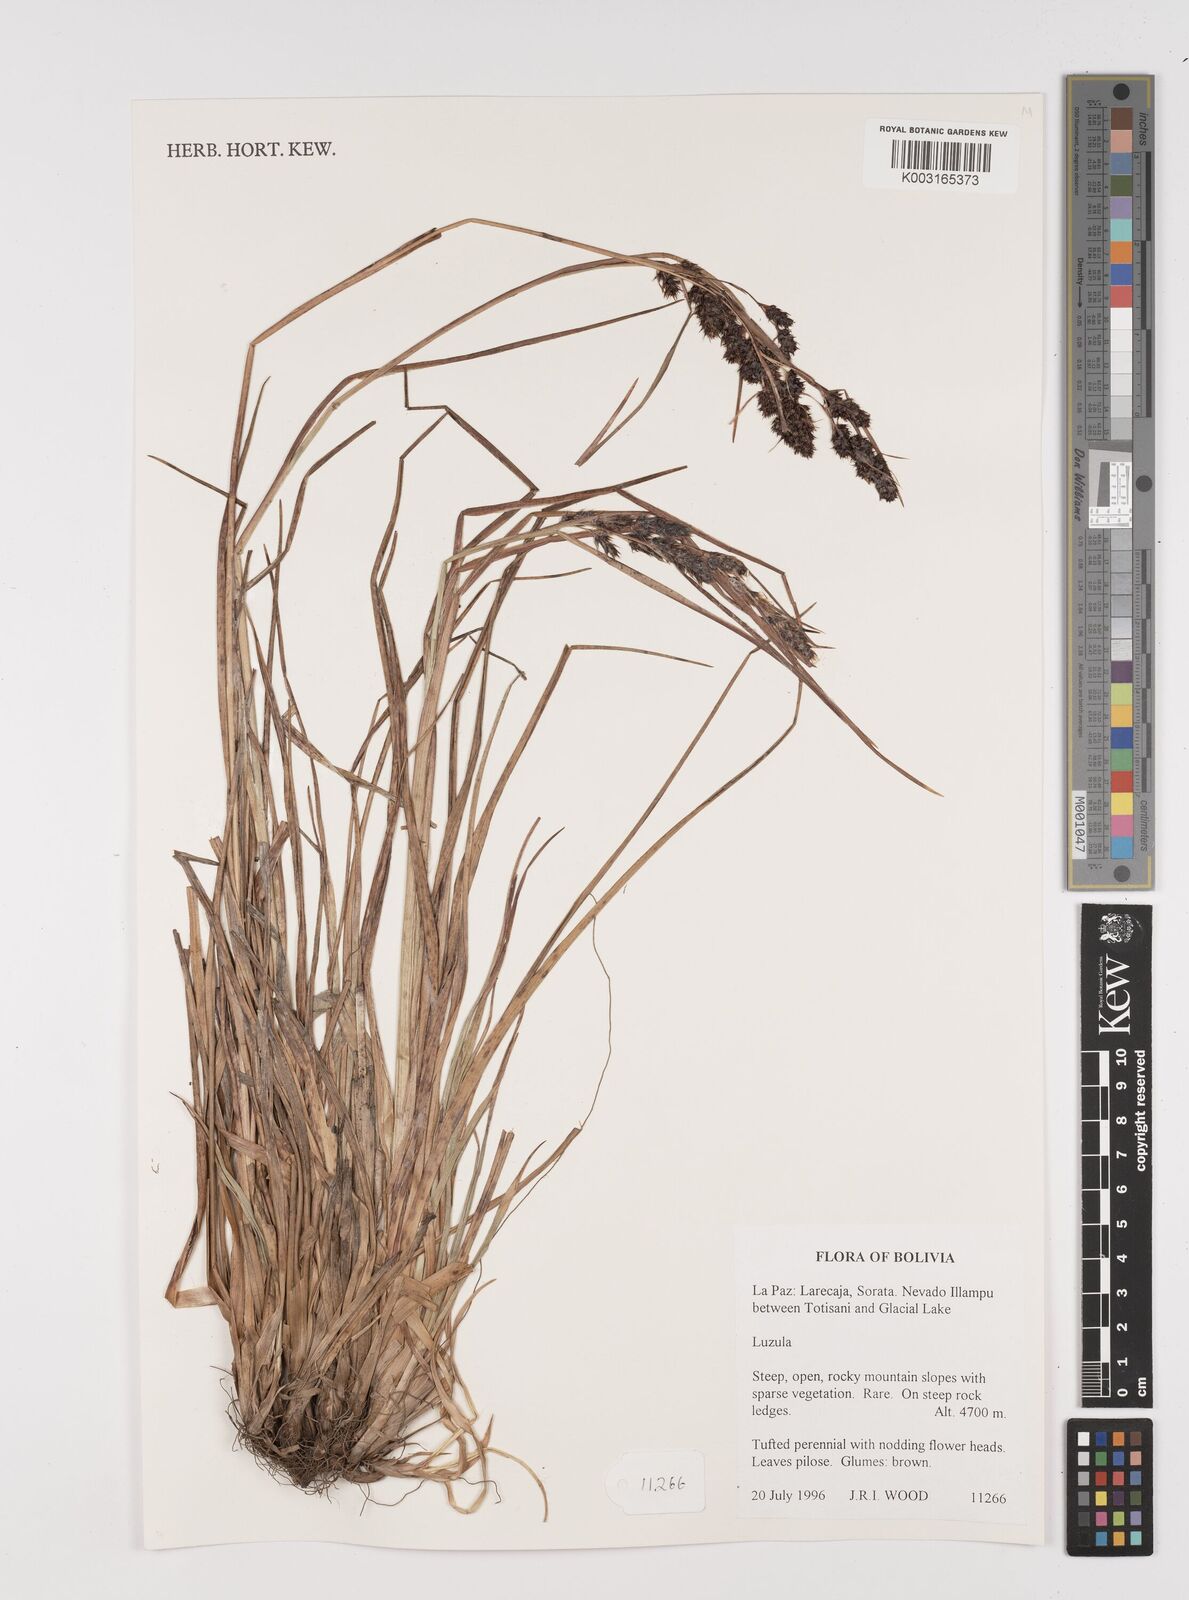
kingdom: Plantae
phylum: Tracheophyta
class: Liliopsida
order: Poales
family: Juncaceae
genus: Luzula
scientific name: Luzula
